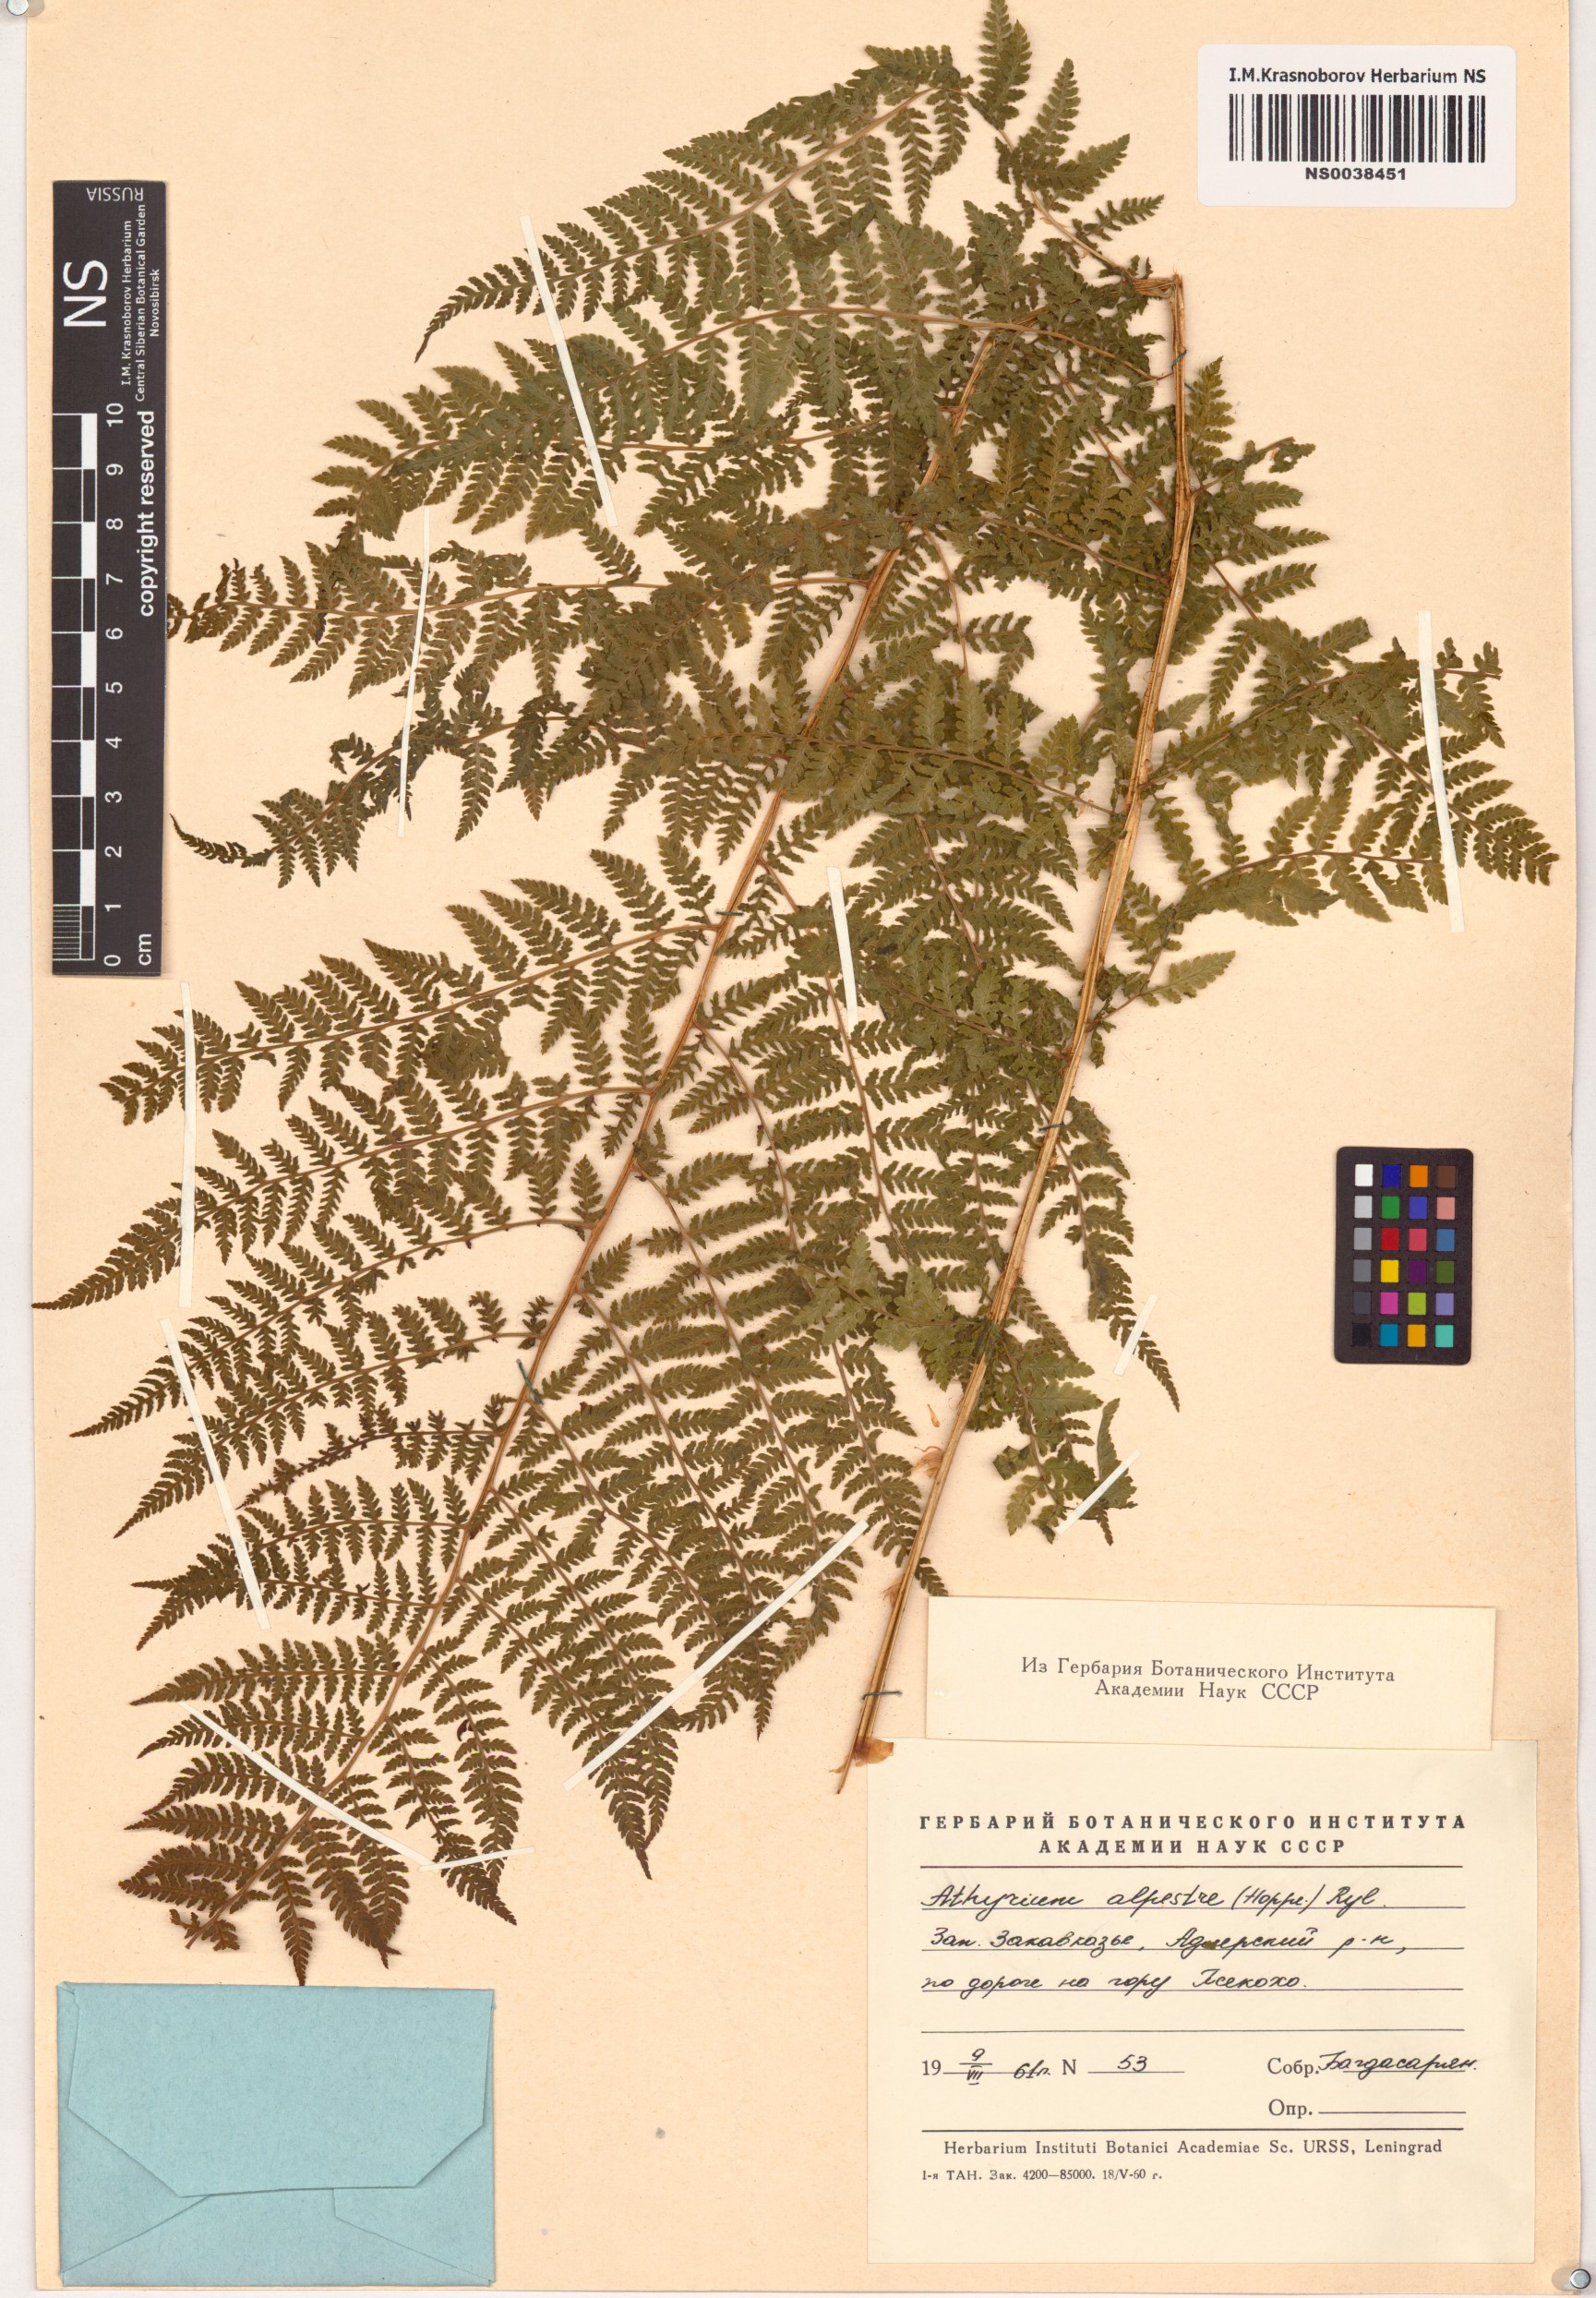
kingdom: Plantae
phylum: Tracheophyta
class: Polypodiopsida
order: Polypodiales
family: Athyriaceae
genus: Pseudathyrium
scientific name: Pseudathyrium alpestre
